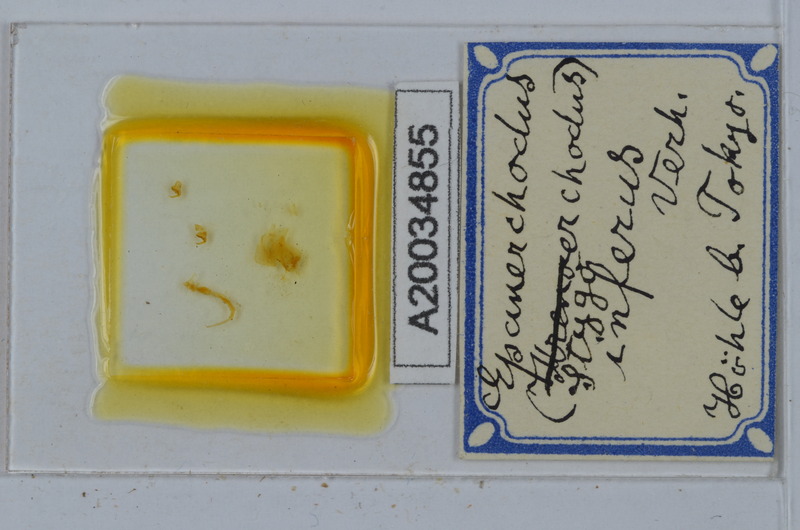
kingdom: Animalia
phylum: Arthropoda
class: Diplopoda
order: Polydesmida
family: Polydesmidae
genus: Epanerchodus
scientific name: Epanerchodus inferus
